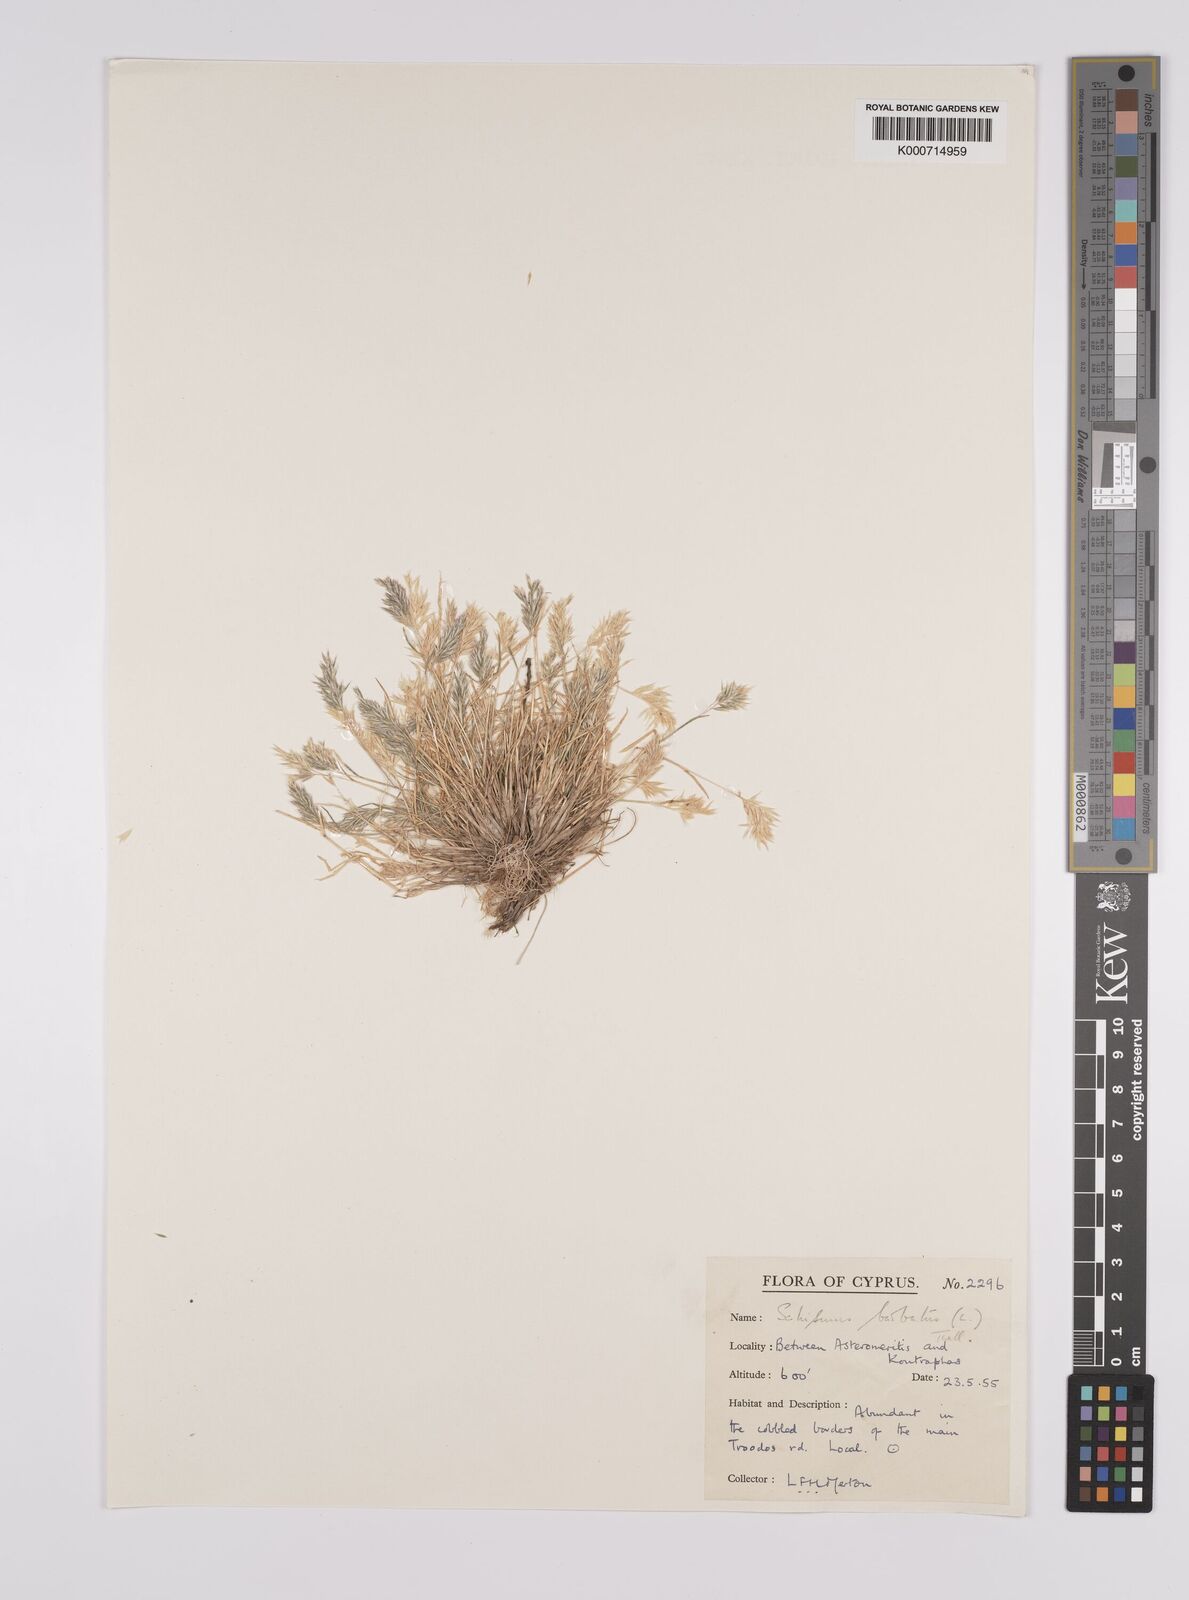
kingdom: Plantae
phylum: Tracheophyta
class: Liliopsida
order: Poales
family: Poaceae
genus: Schismus
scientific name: Schismus arabicus
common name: Arabian schismus
